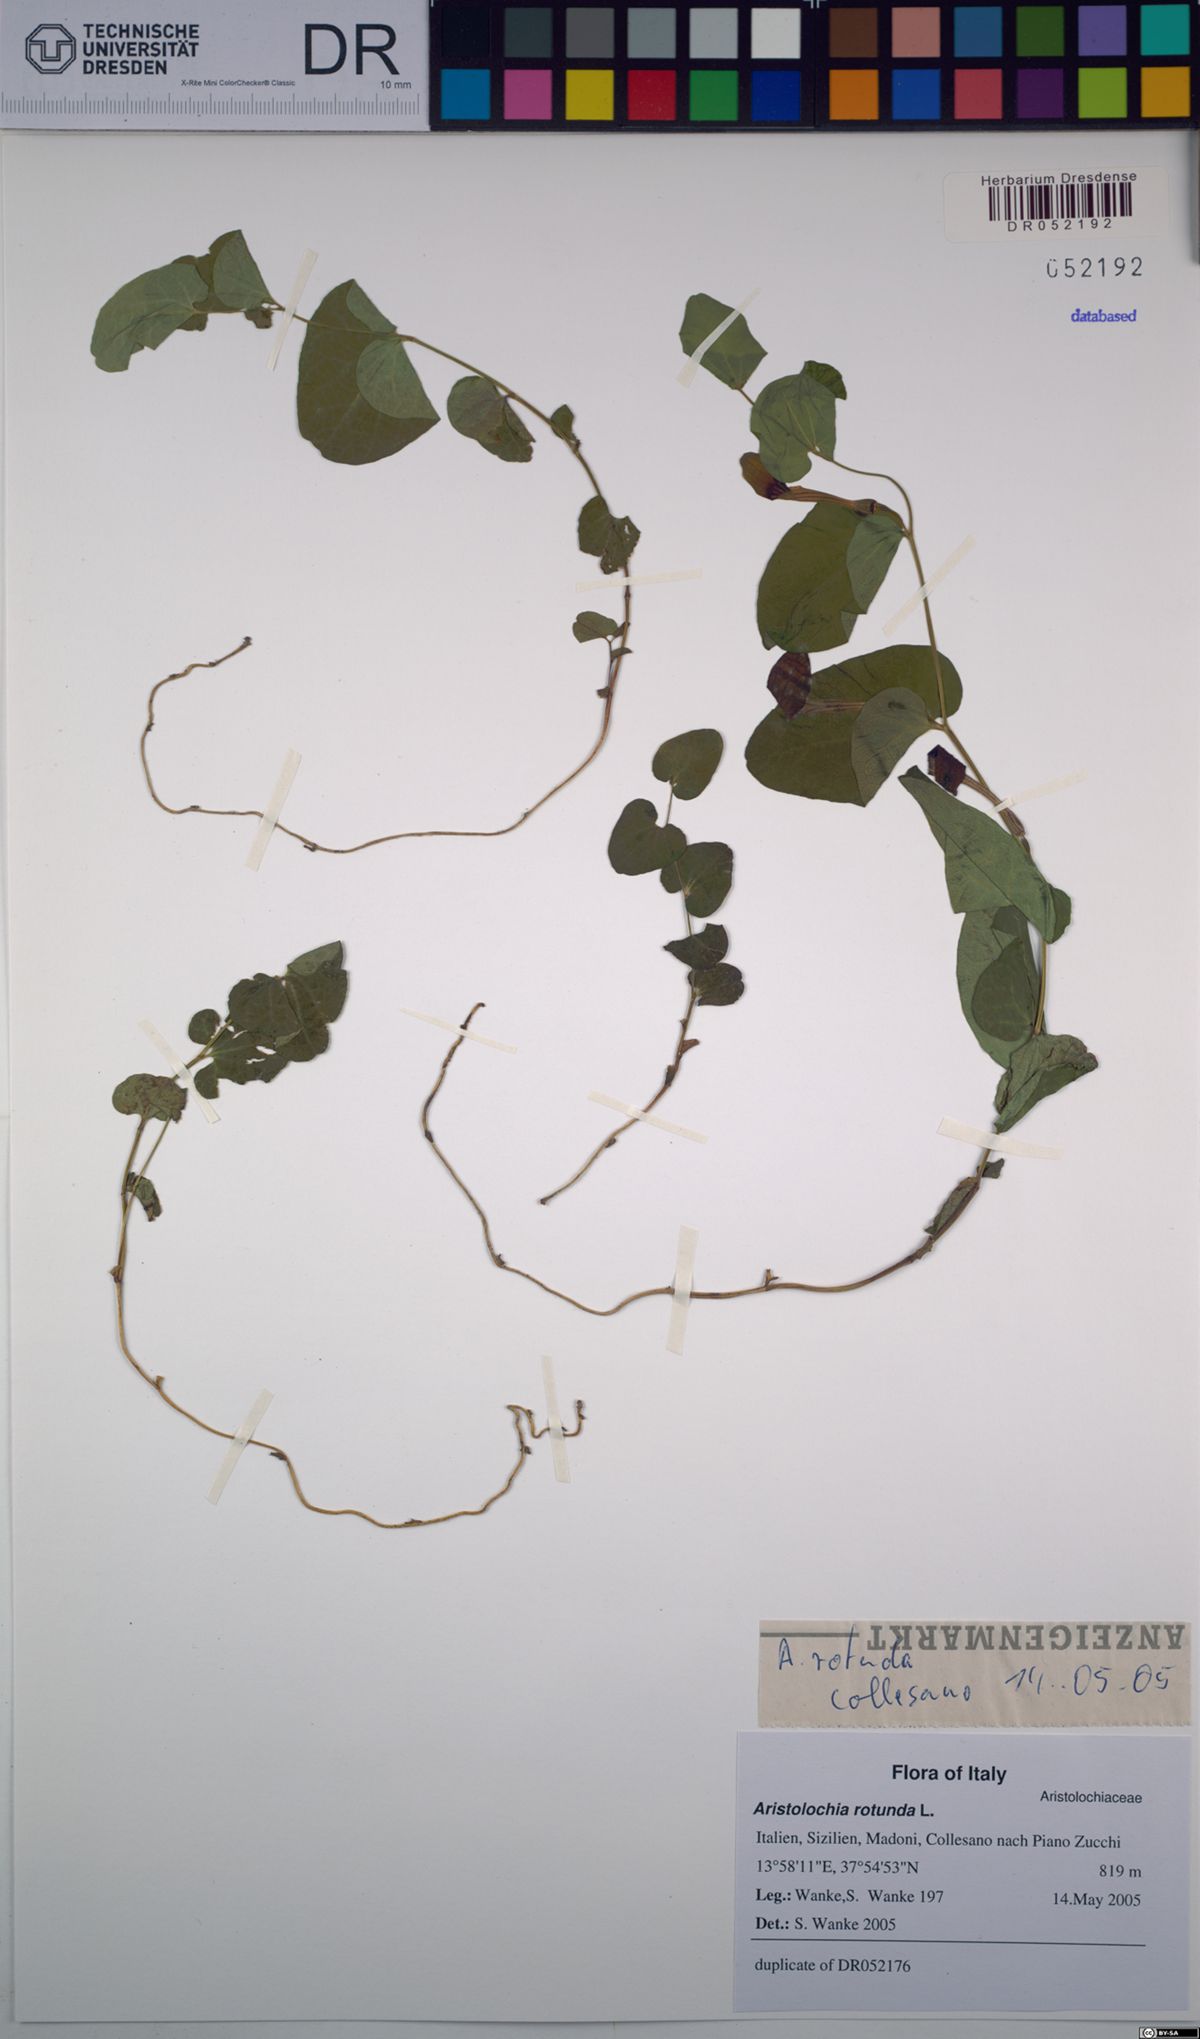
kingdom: Plantae
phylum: Tracheophyta
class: Magnoliopsida
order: Piperales
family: Aristolochiaceae
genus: Aristolochia
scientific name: Aristolochia rotunda
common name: Smearwort
